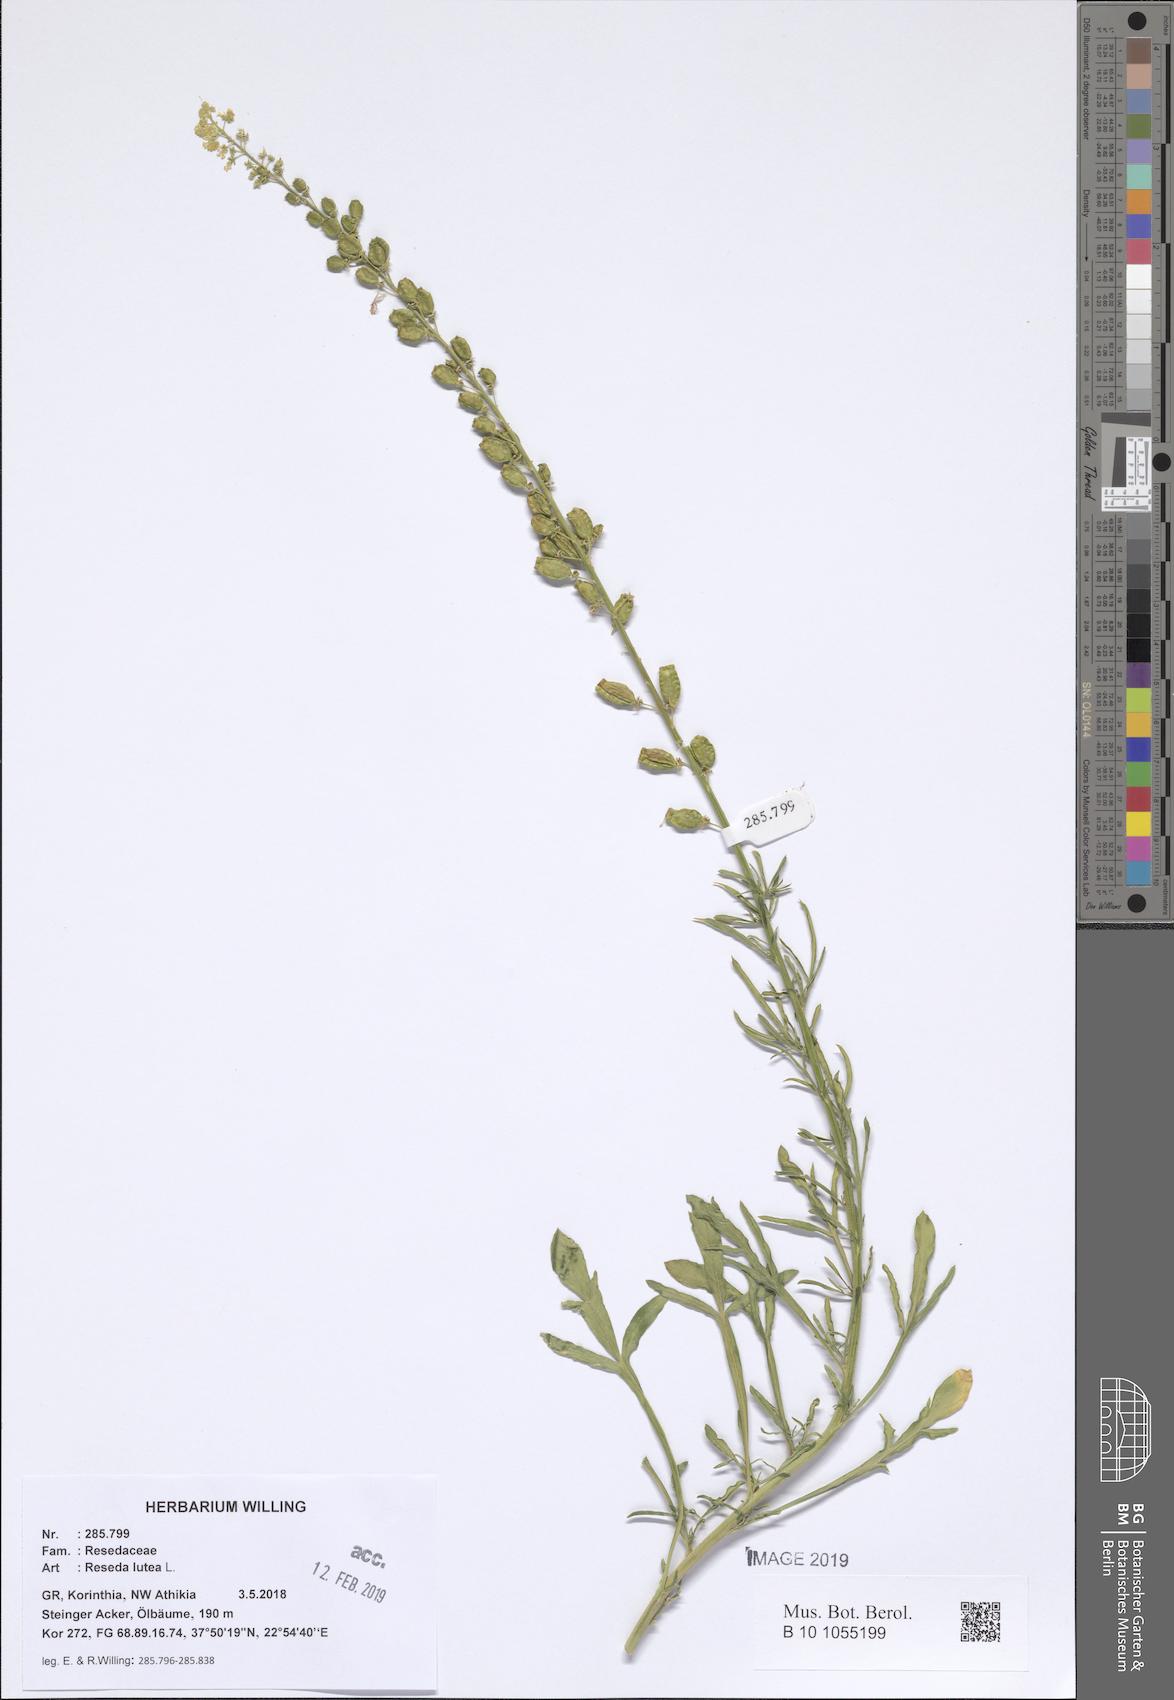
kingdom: Plantae
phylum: Tracheophyta
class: Magnoliopsida
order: Brassicales
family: Resedaceae
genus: Reseda
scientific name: Reseda lutea
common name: Wild mignonette
